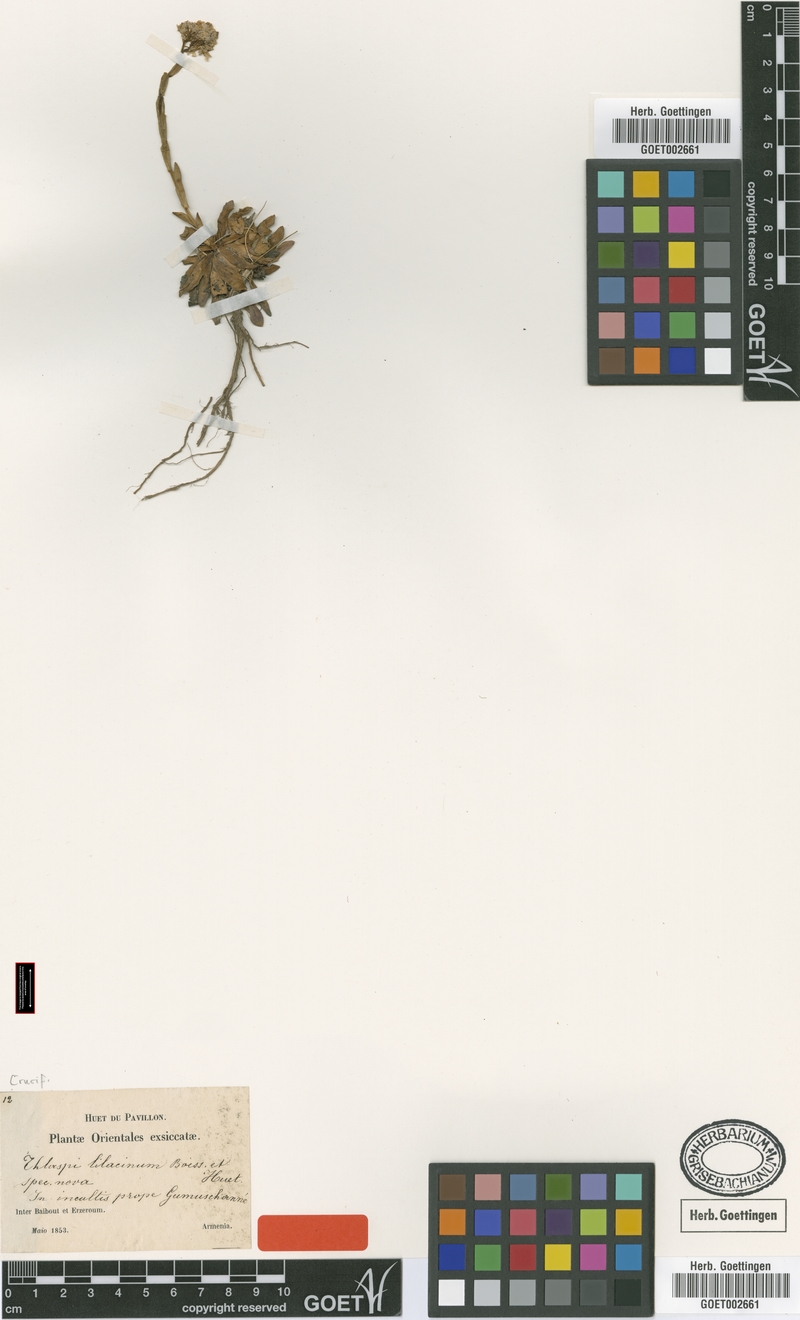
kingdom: Plantae
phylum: Tracheophyta
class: Magnoliopsida
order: Brassicales
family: Brassicaceae
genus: Noccaea
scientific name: Noccaea lilacina
